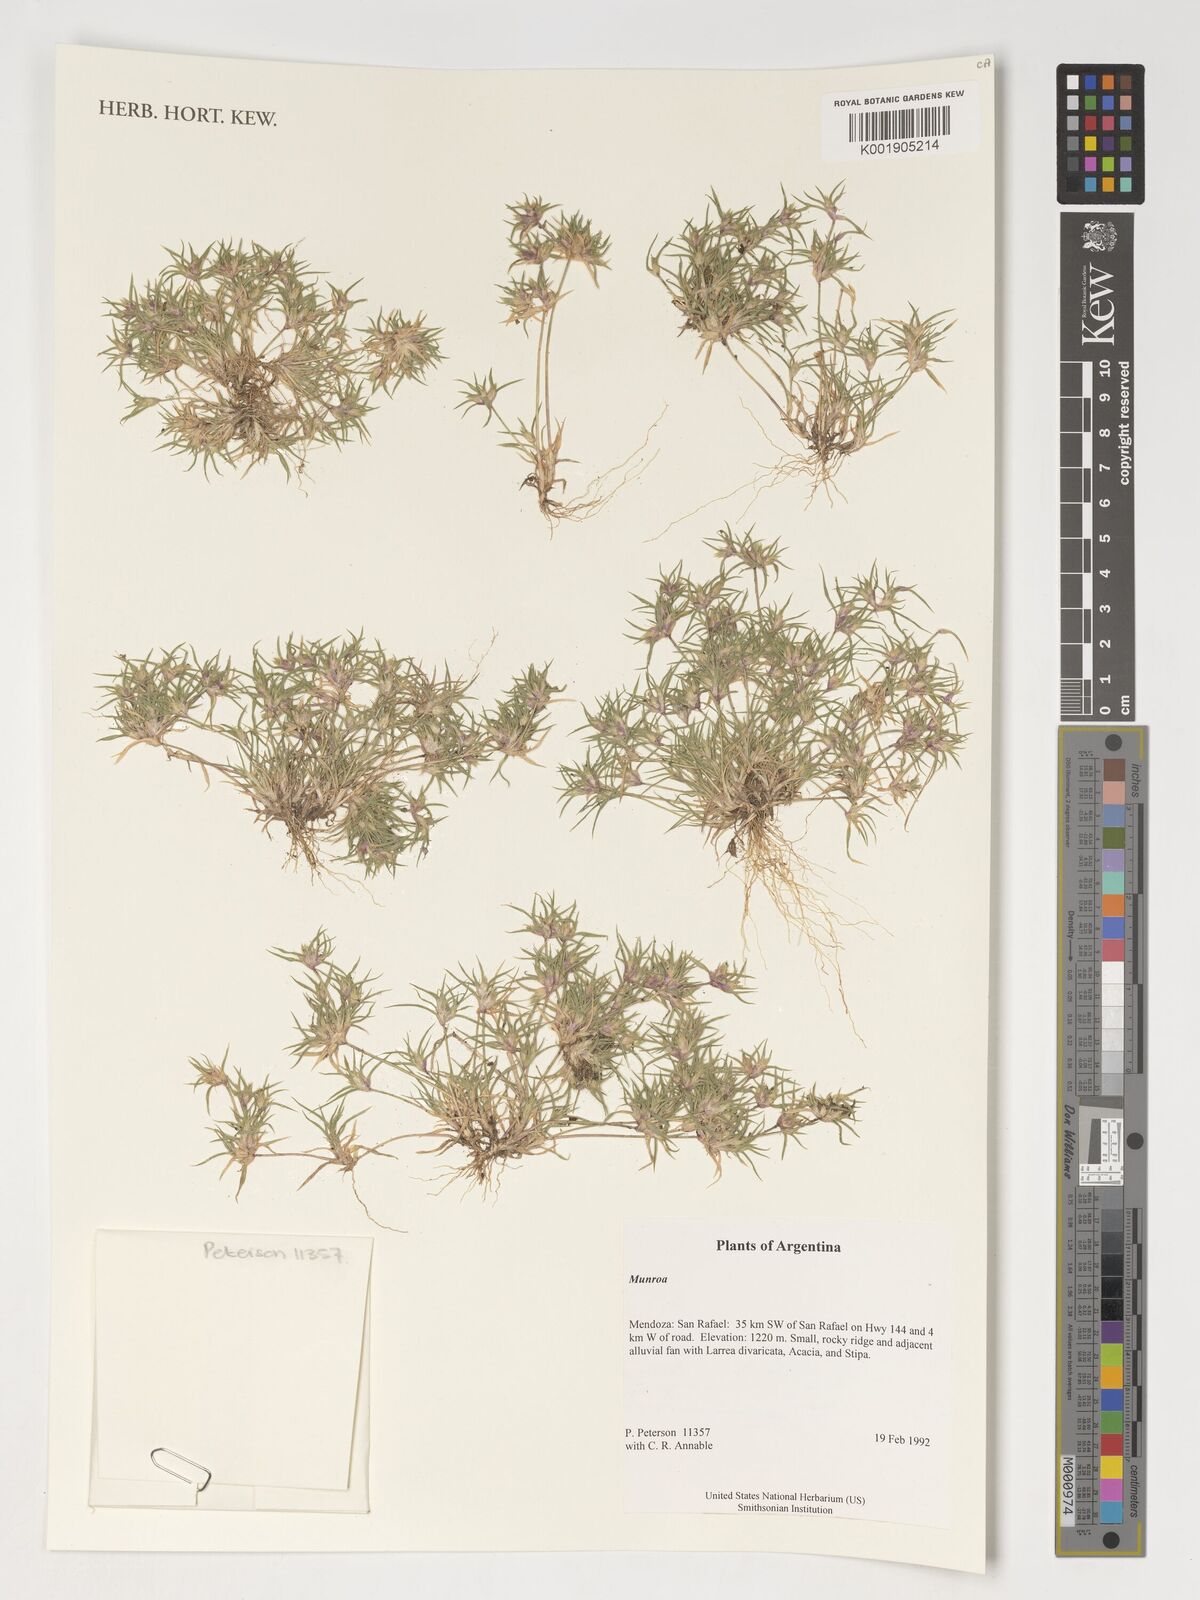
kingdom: Plantae
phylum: Tracheophyta
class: Liliopsida
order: Poales
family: Poaceae
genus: Munroa
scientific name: Munroa
